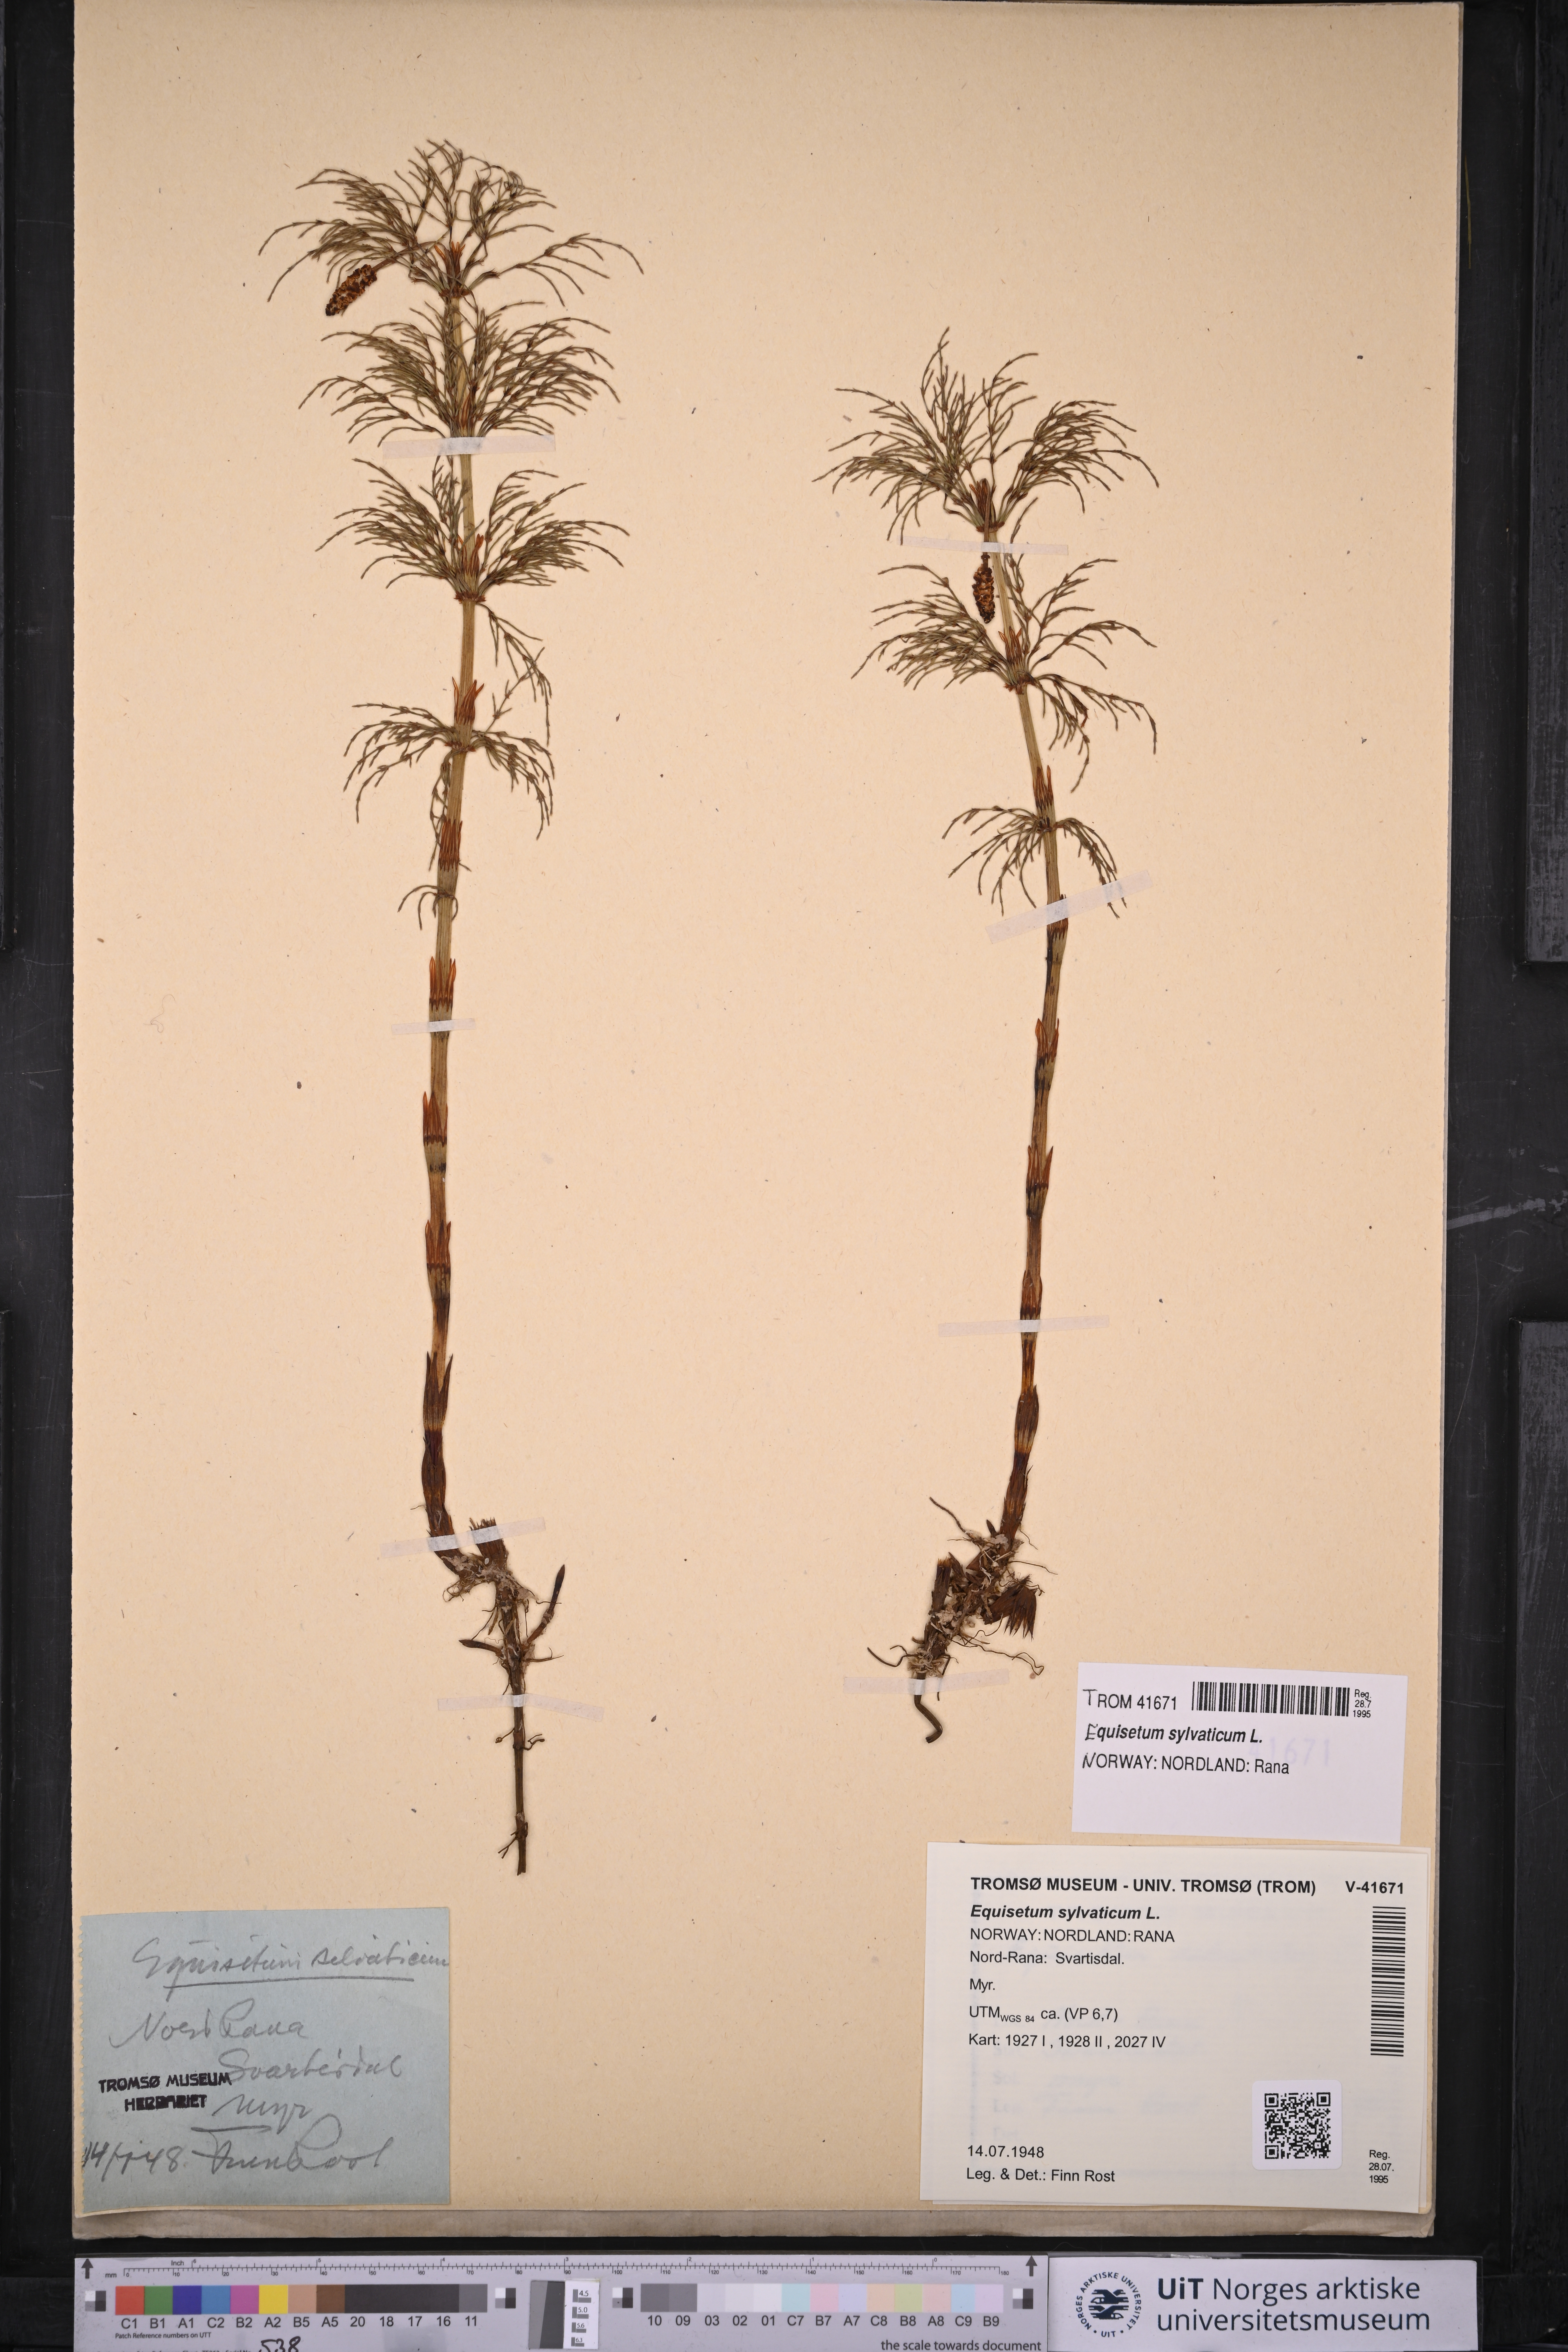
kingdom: Plantae
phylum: Tracheophyta
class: Polypodiopsida
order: Equisetales
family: Equisetaceae
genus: Equisetum
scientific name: Equisetum sylvaticum
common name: Wood horsetail
